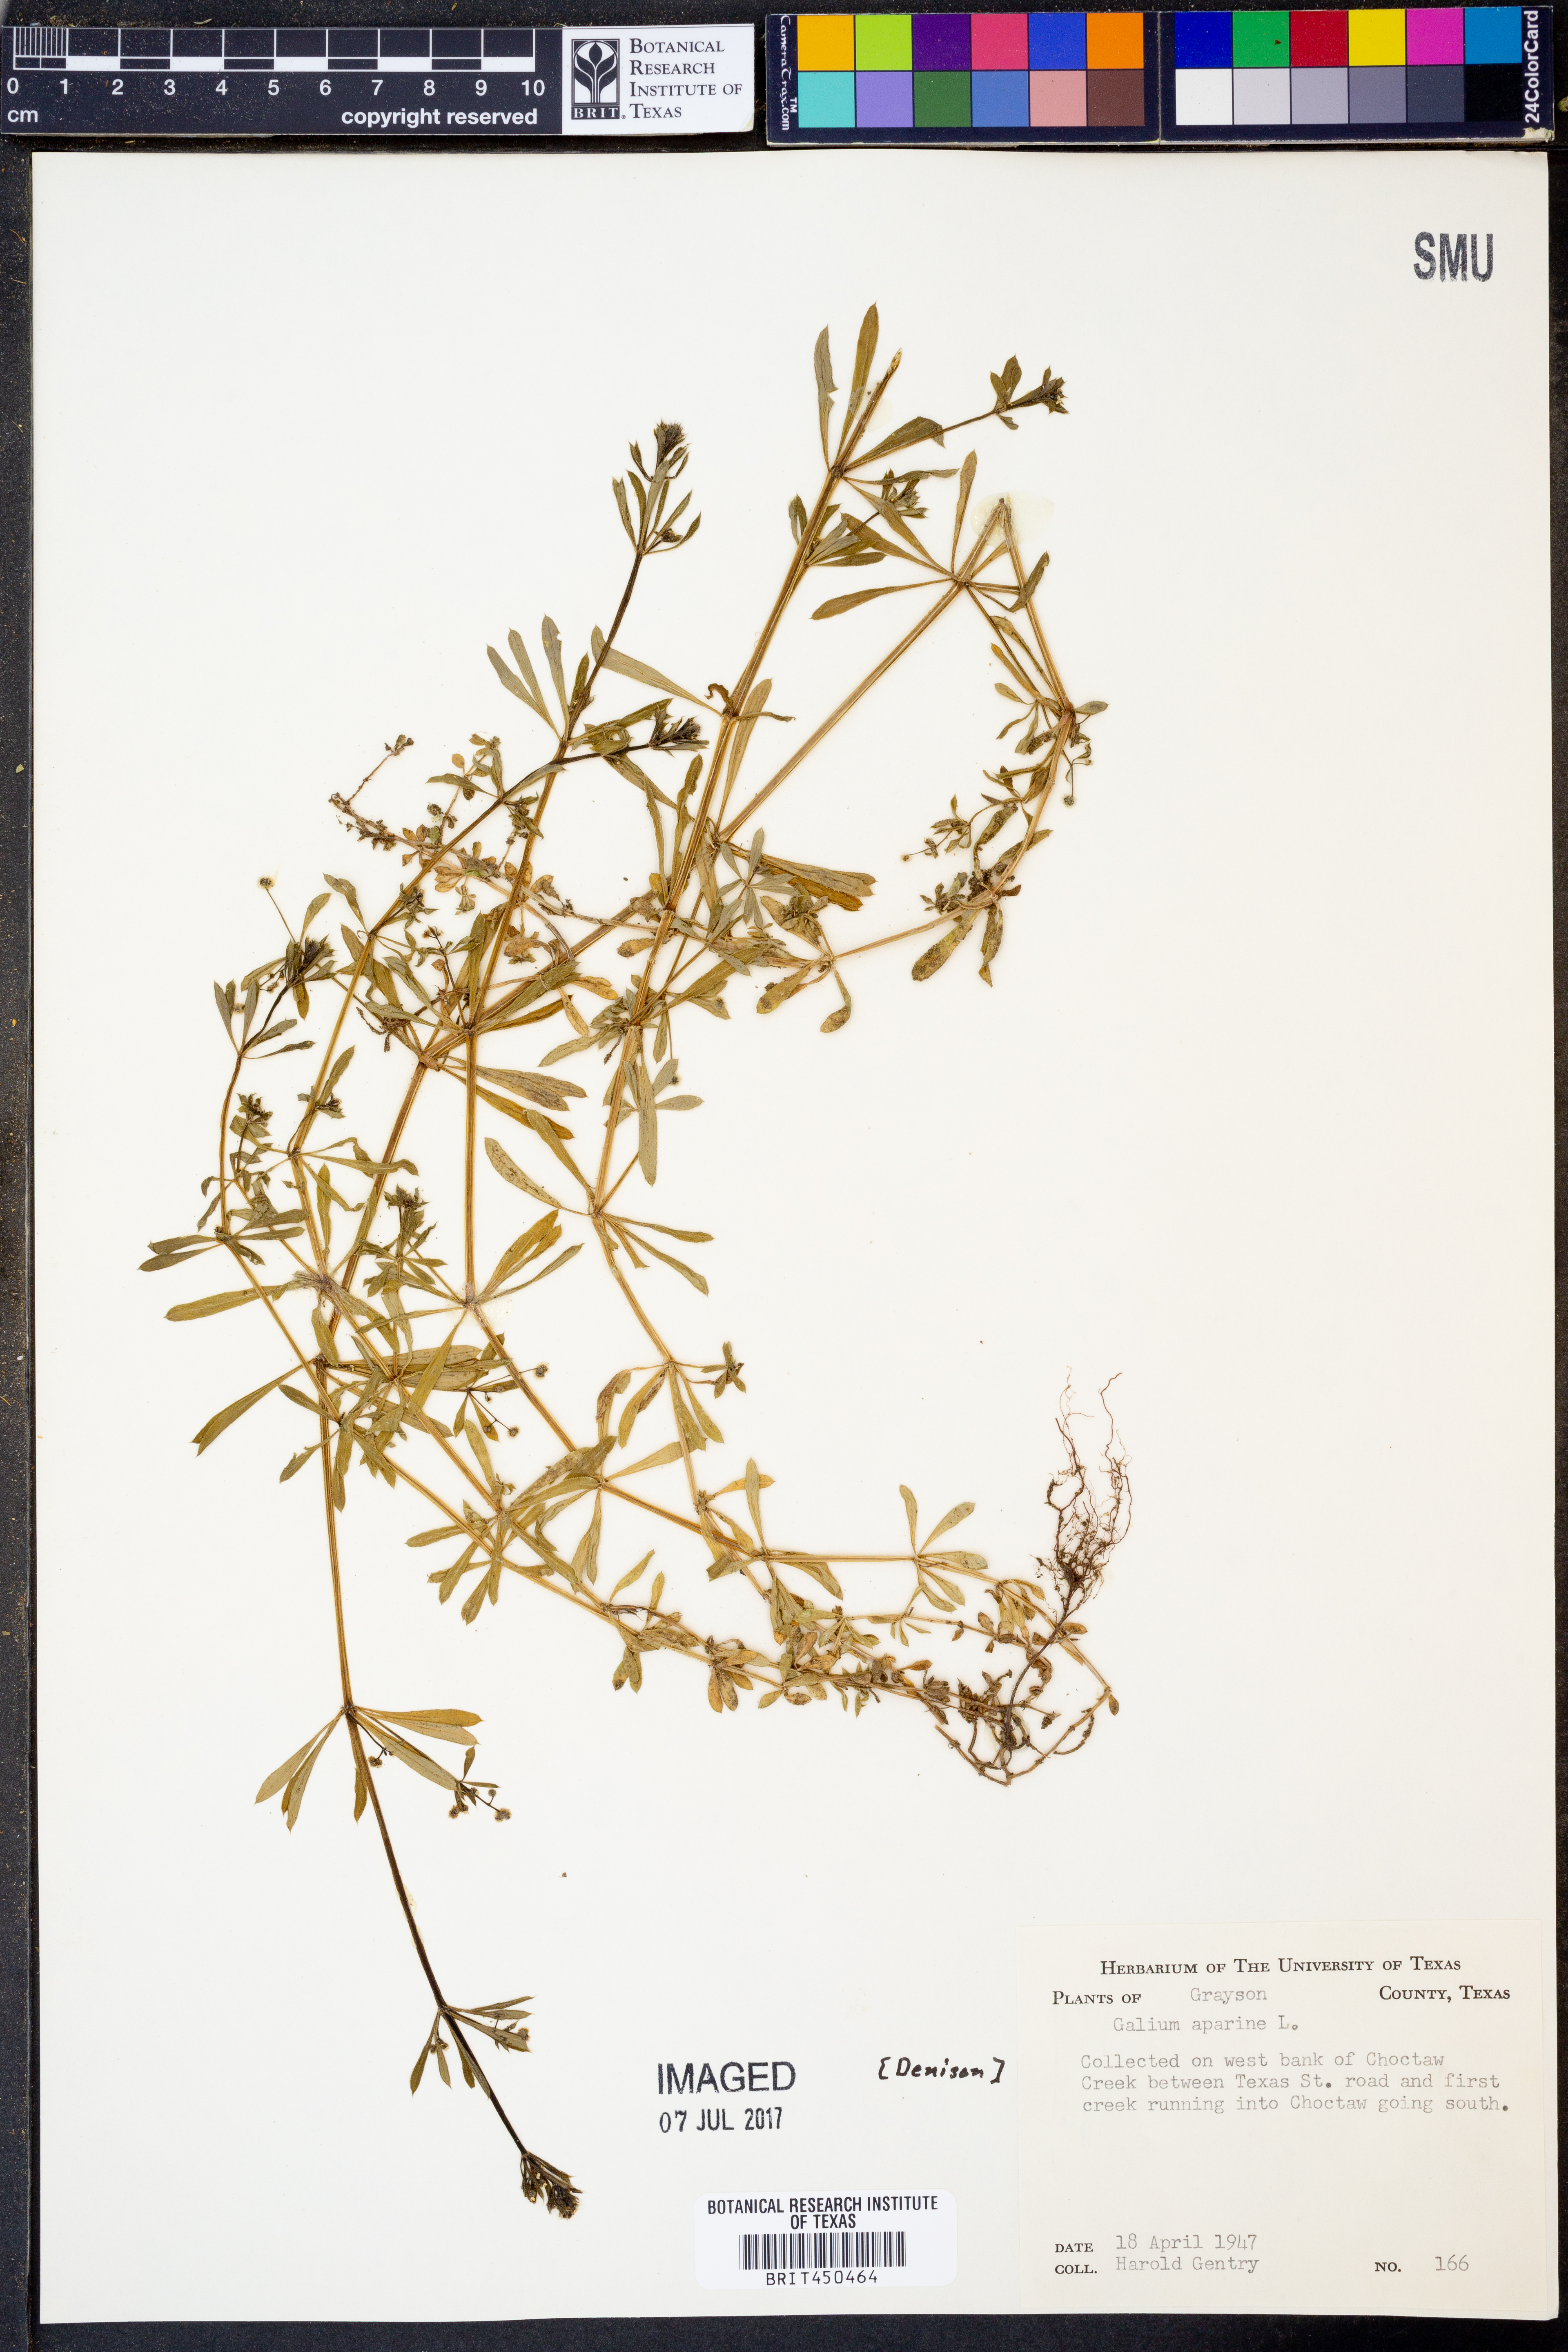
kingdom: Plantae
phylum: Tracheophyta
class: Magnoliopsida
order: Gentianales
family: Rubiaceae
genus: Galium
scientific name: Galium aparine
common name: Cleavers
